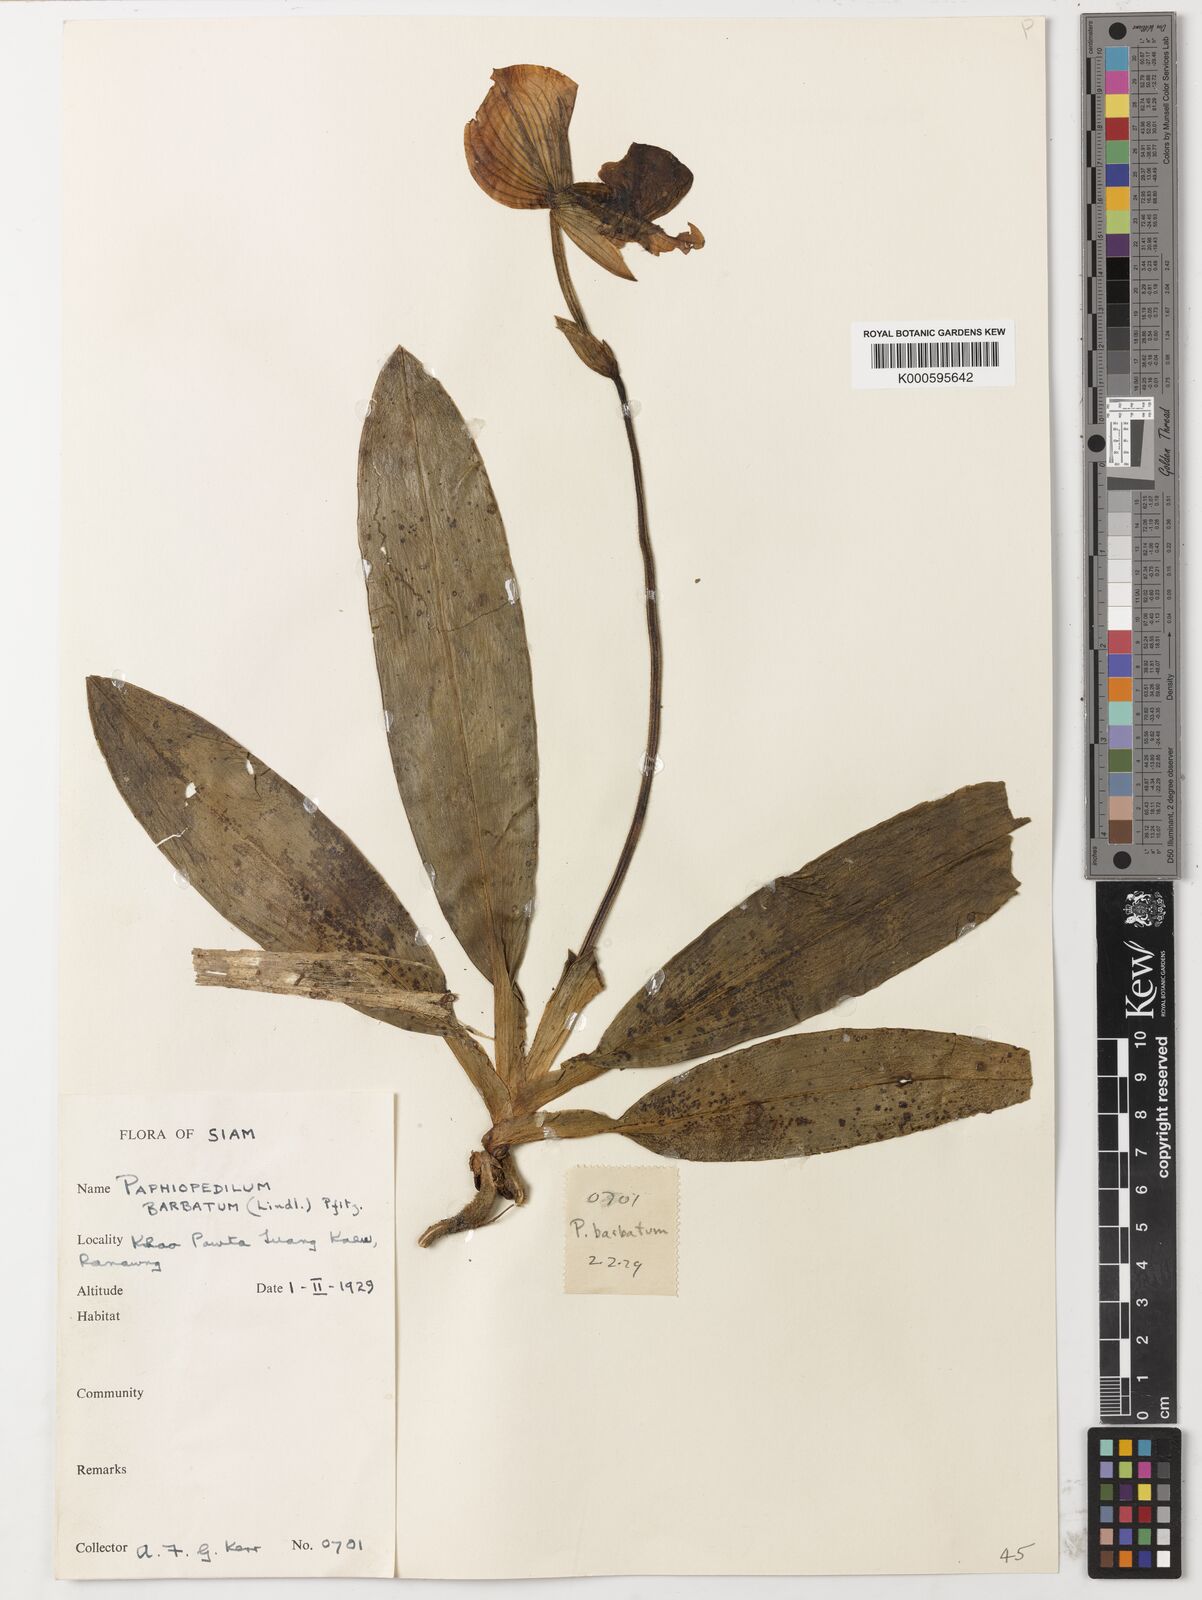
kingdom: Plantae
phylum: Tracheophyta
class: Liliopsida
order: Asparagales
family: Orchidaceae
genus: Paphiopedilum
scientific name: Paphiopedilum callosum
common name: Callus paphiopedilum
